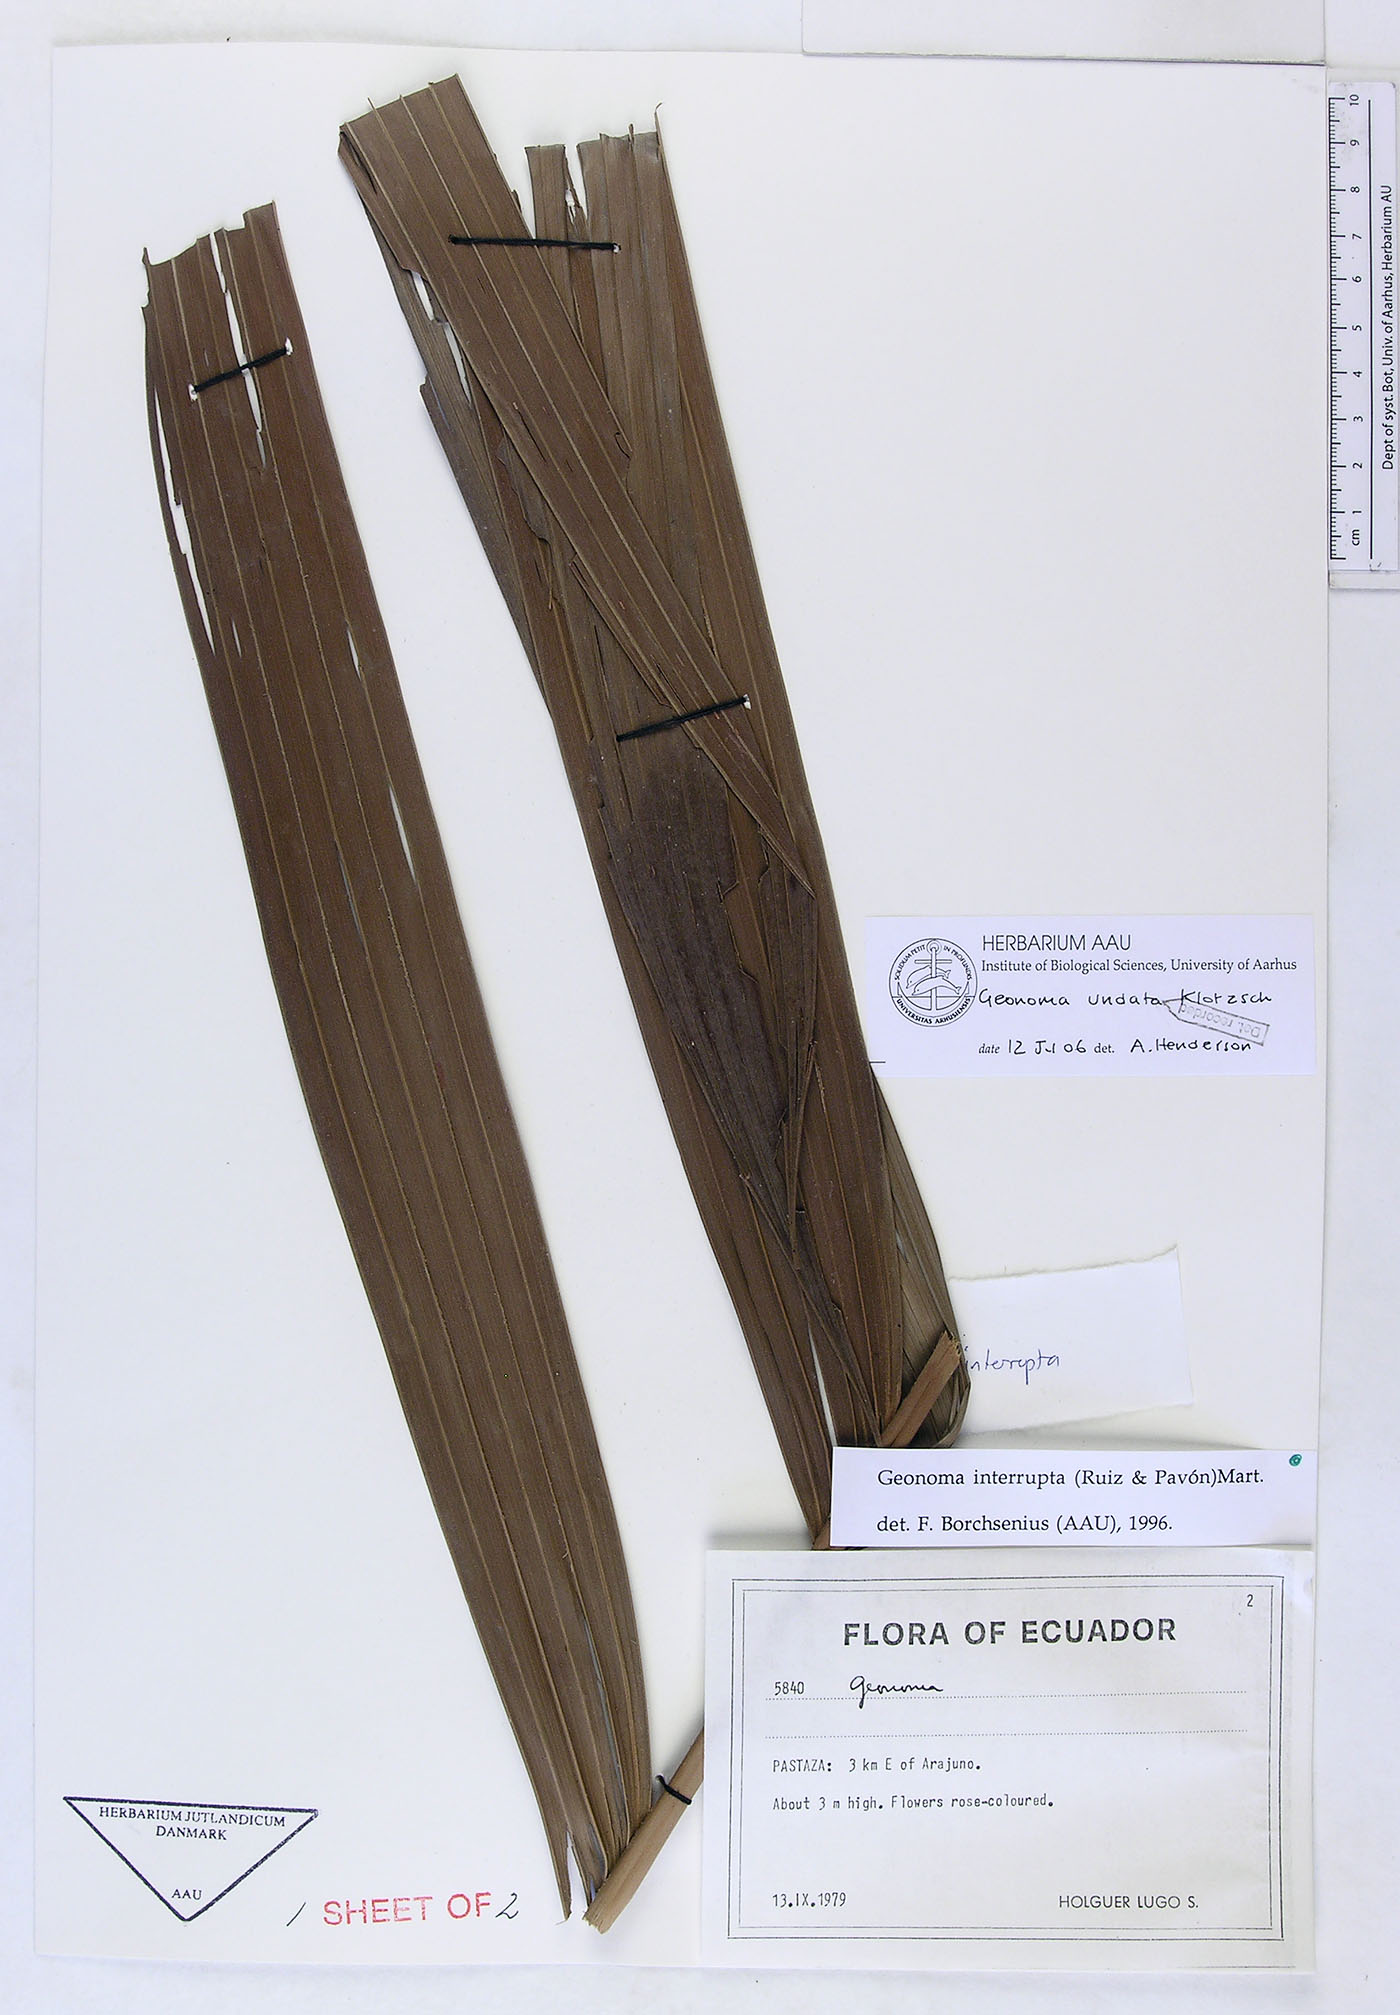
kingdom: Plantae
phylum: Tracheophyta
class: Liliopsida
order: Arecales
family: Arecaceae
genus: Geonoma
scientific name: Geonoma undata
